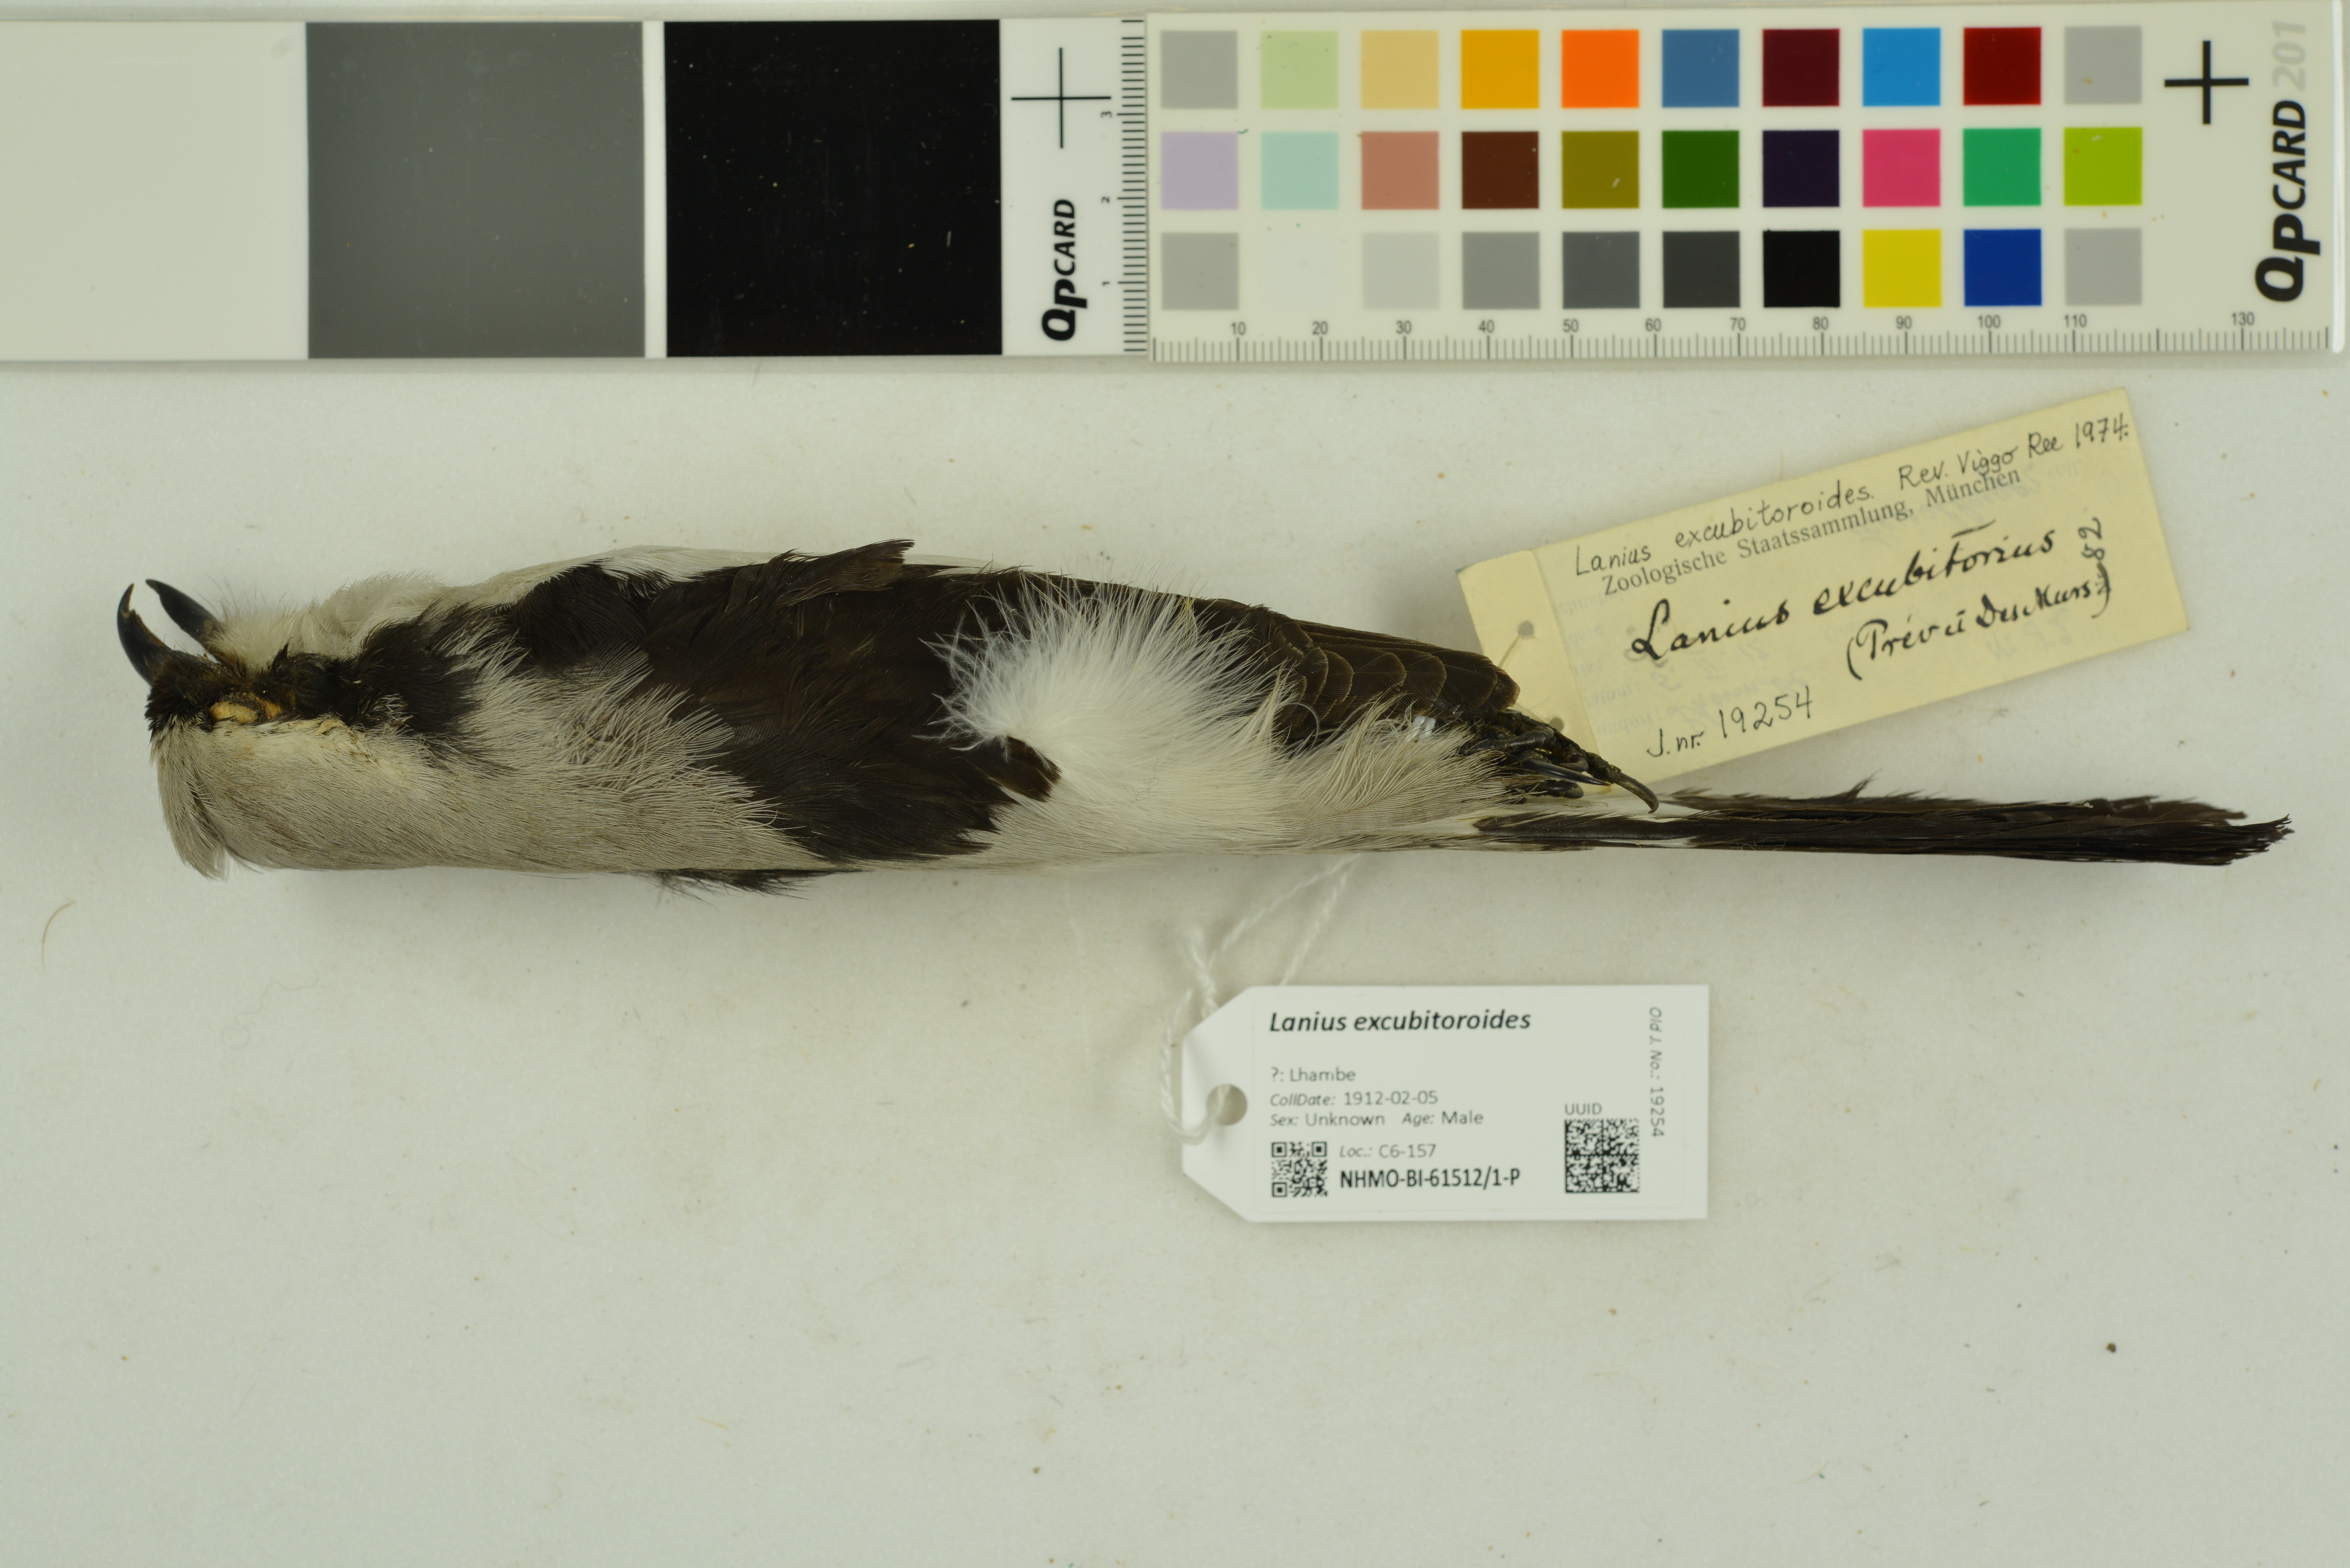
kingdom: Animalia
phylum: Chordata
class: Aves
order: Passeriformes
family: Laniidae
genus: Lanius
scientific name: Lanius excubitoroides
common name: Grey-backed fiscal
